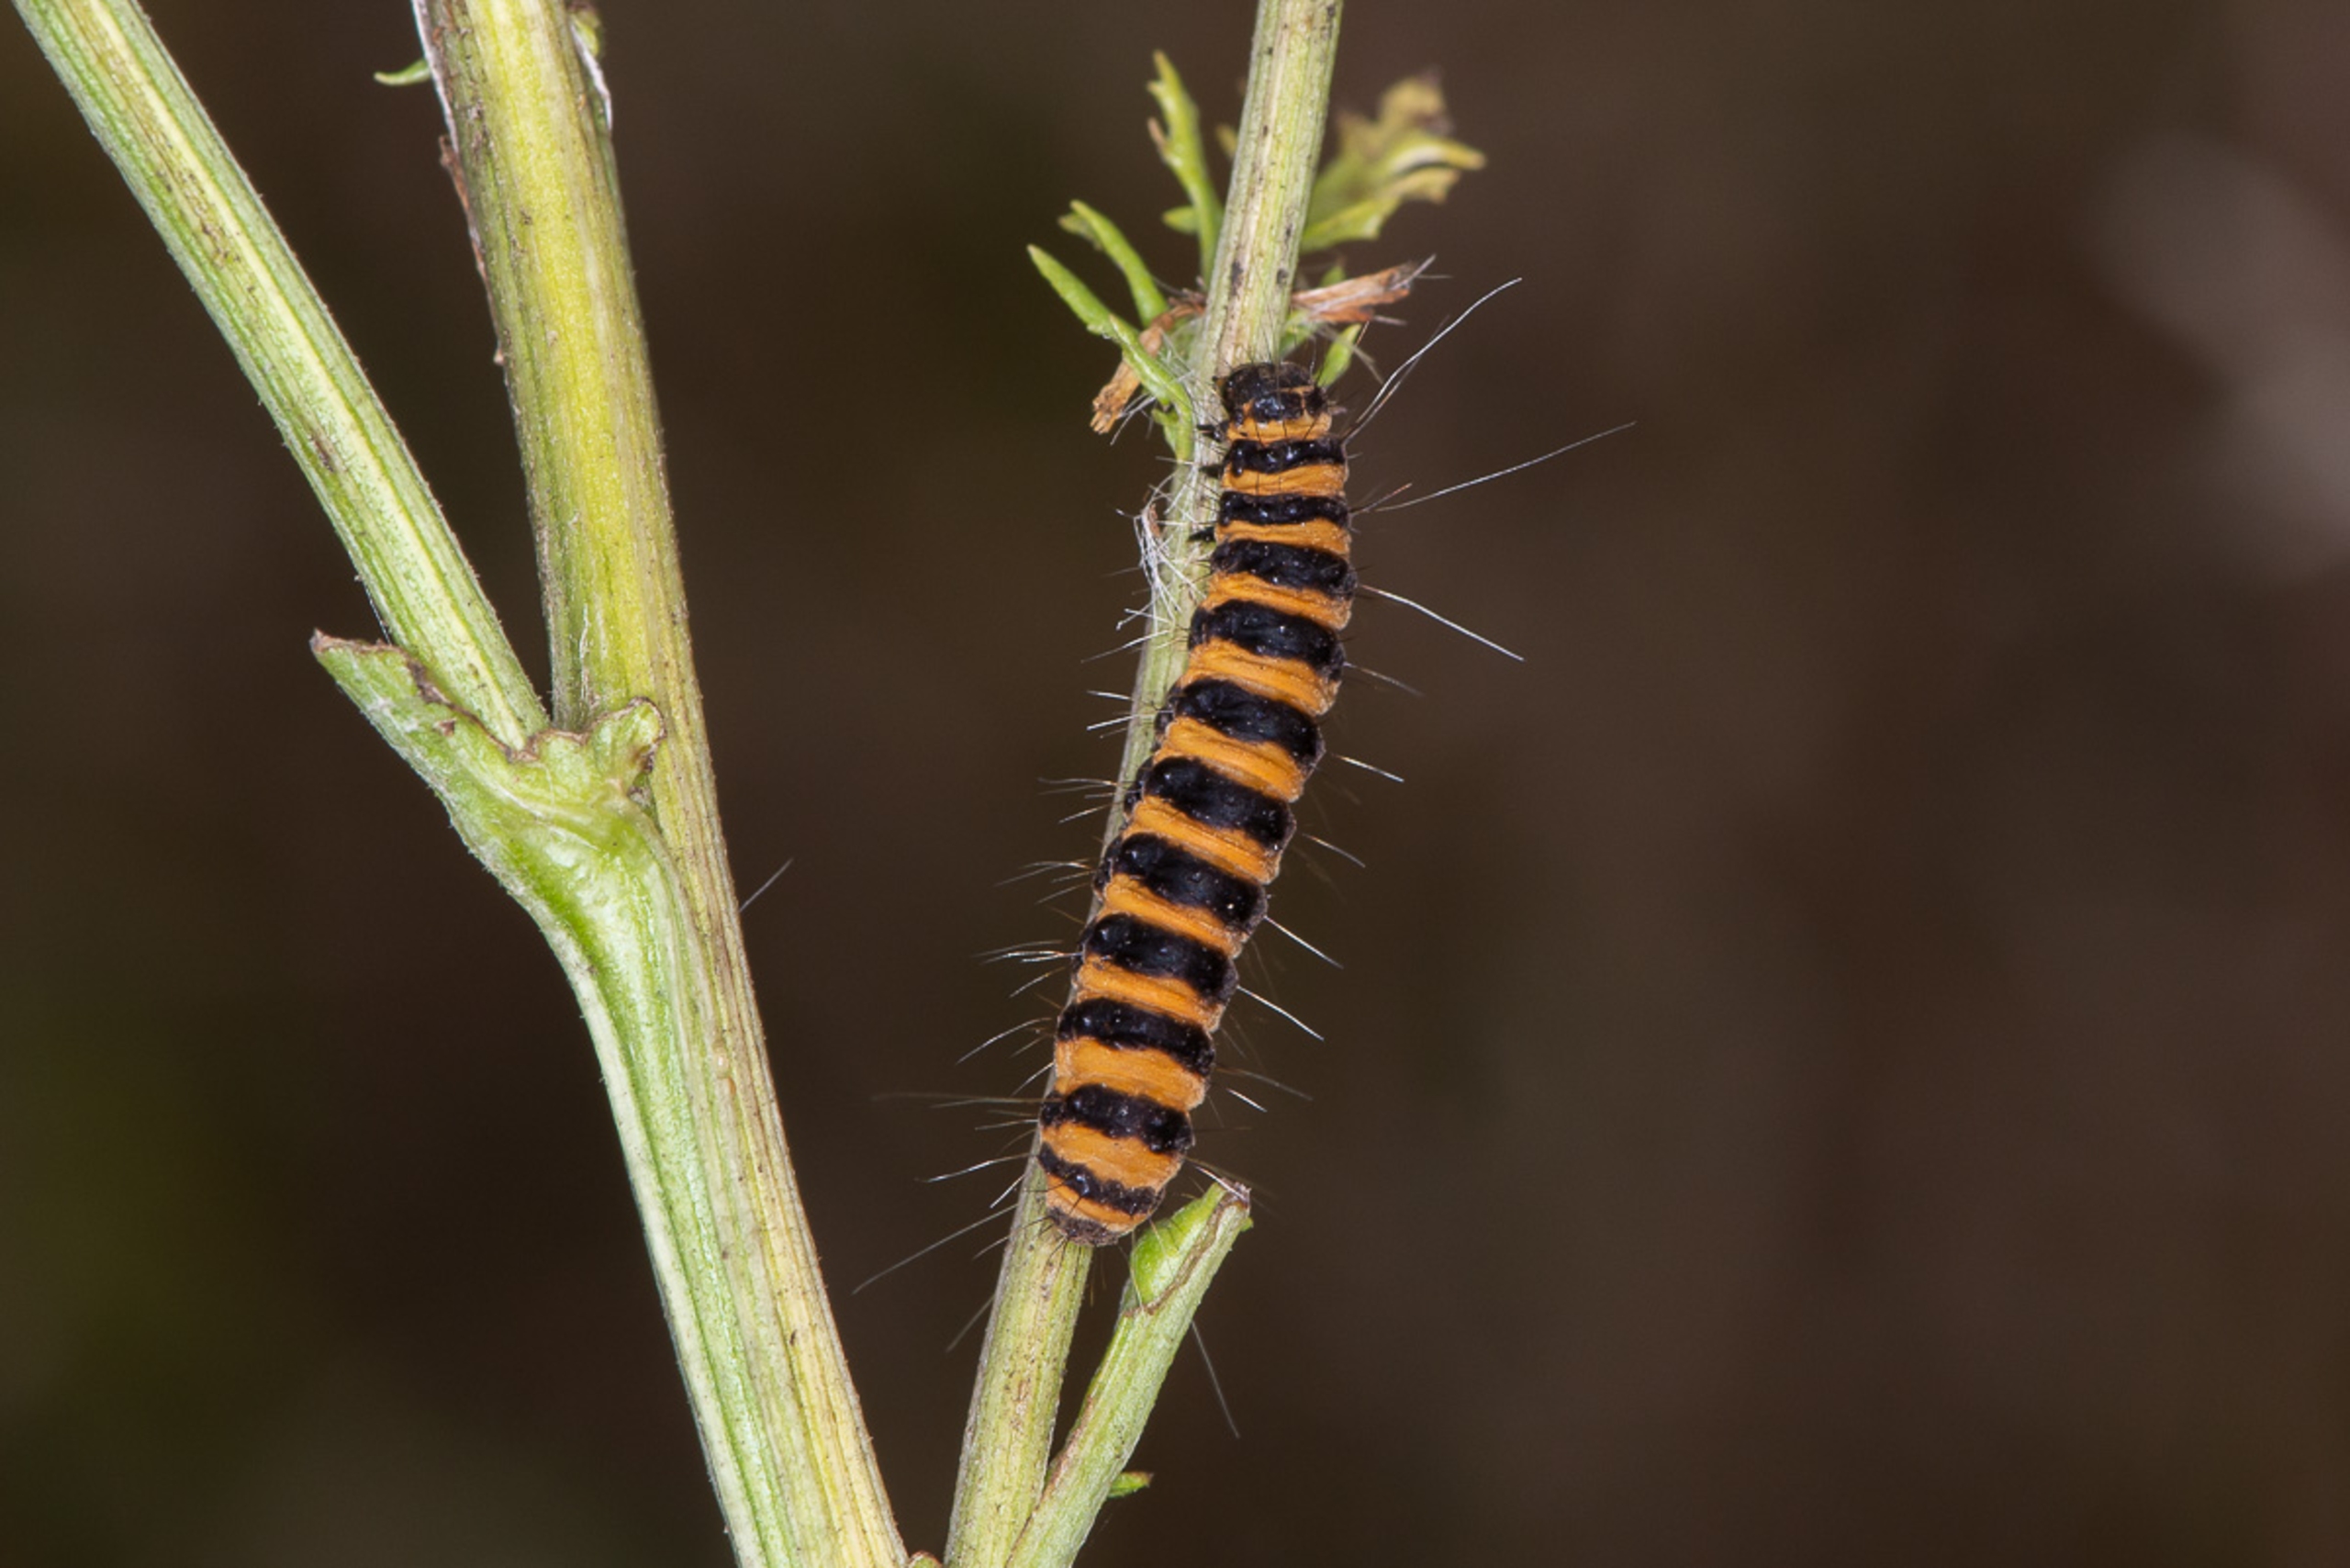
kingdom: Animalia
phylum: Arthropoda
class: Insecta
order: Lepidoptera
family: Erebidae
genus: Tyria
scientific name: Tyria jacobaeae
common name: Blodplet
